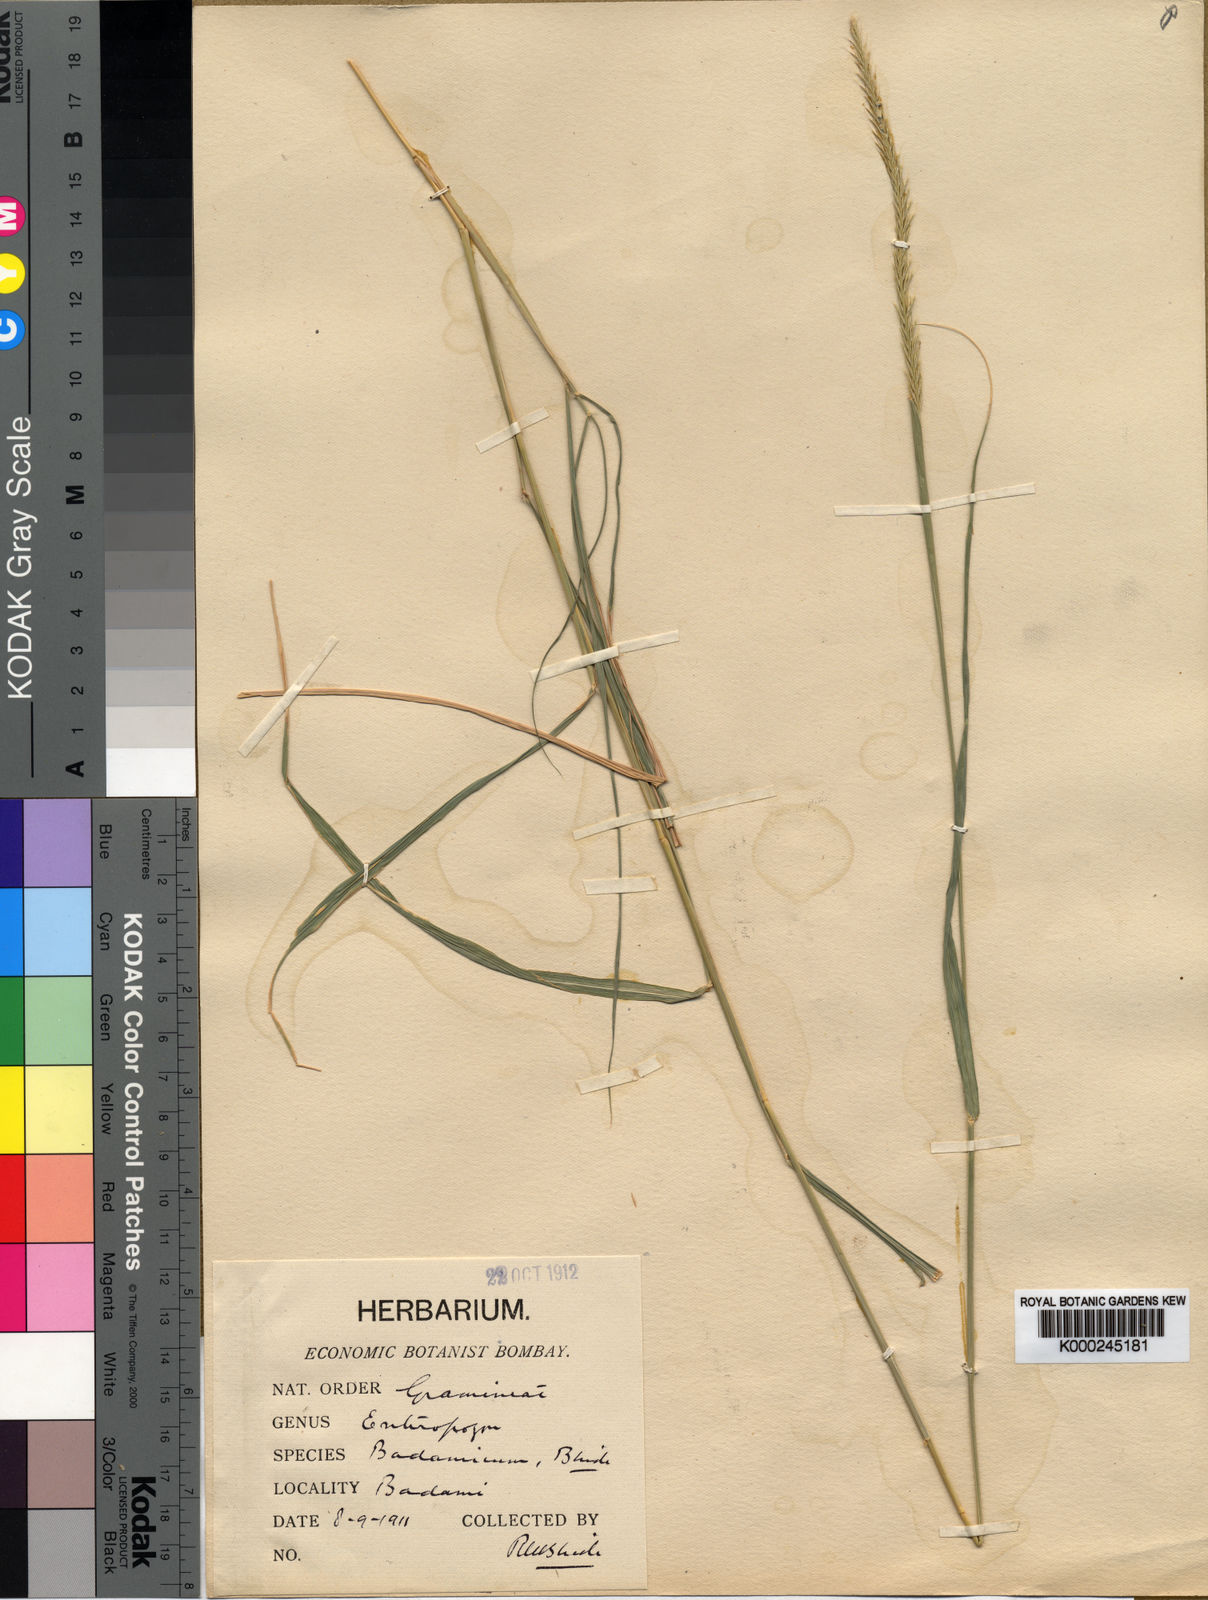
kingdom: Plantae
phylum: Tracheophyta
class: Liliopsida
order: Poales
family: Poaceae
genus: Enteropogon
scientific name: Enteropogon monostachyos
